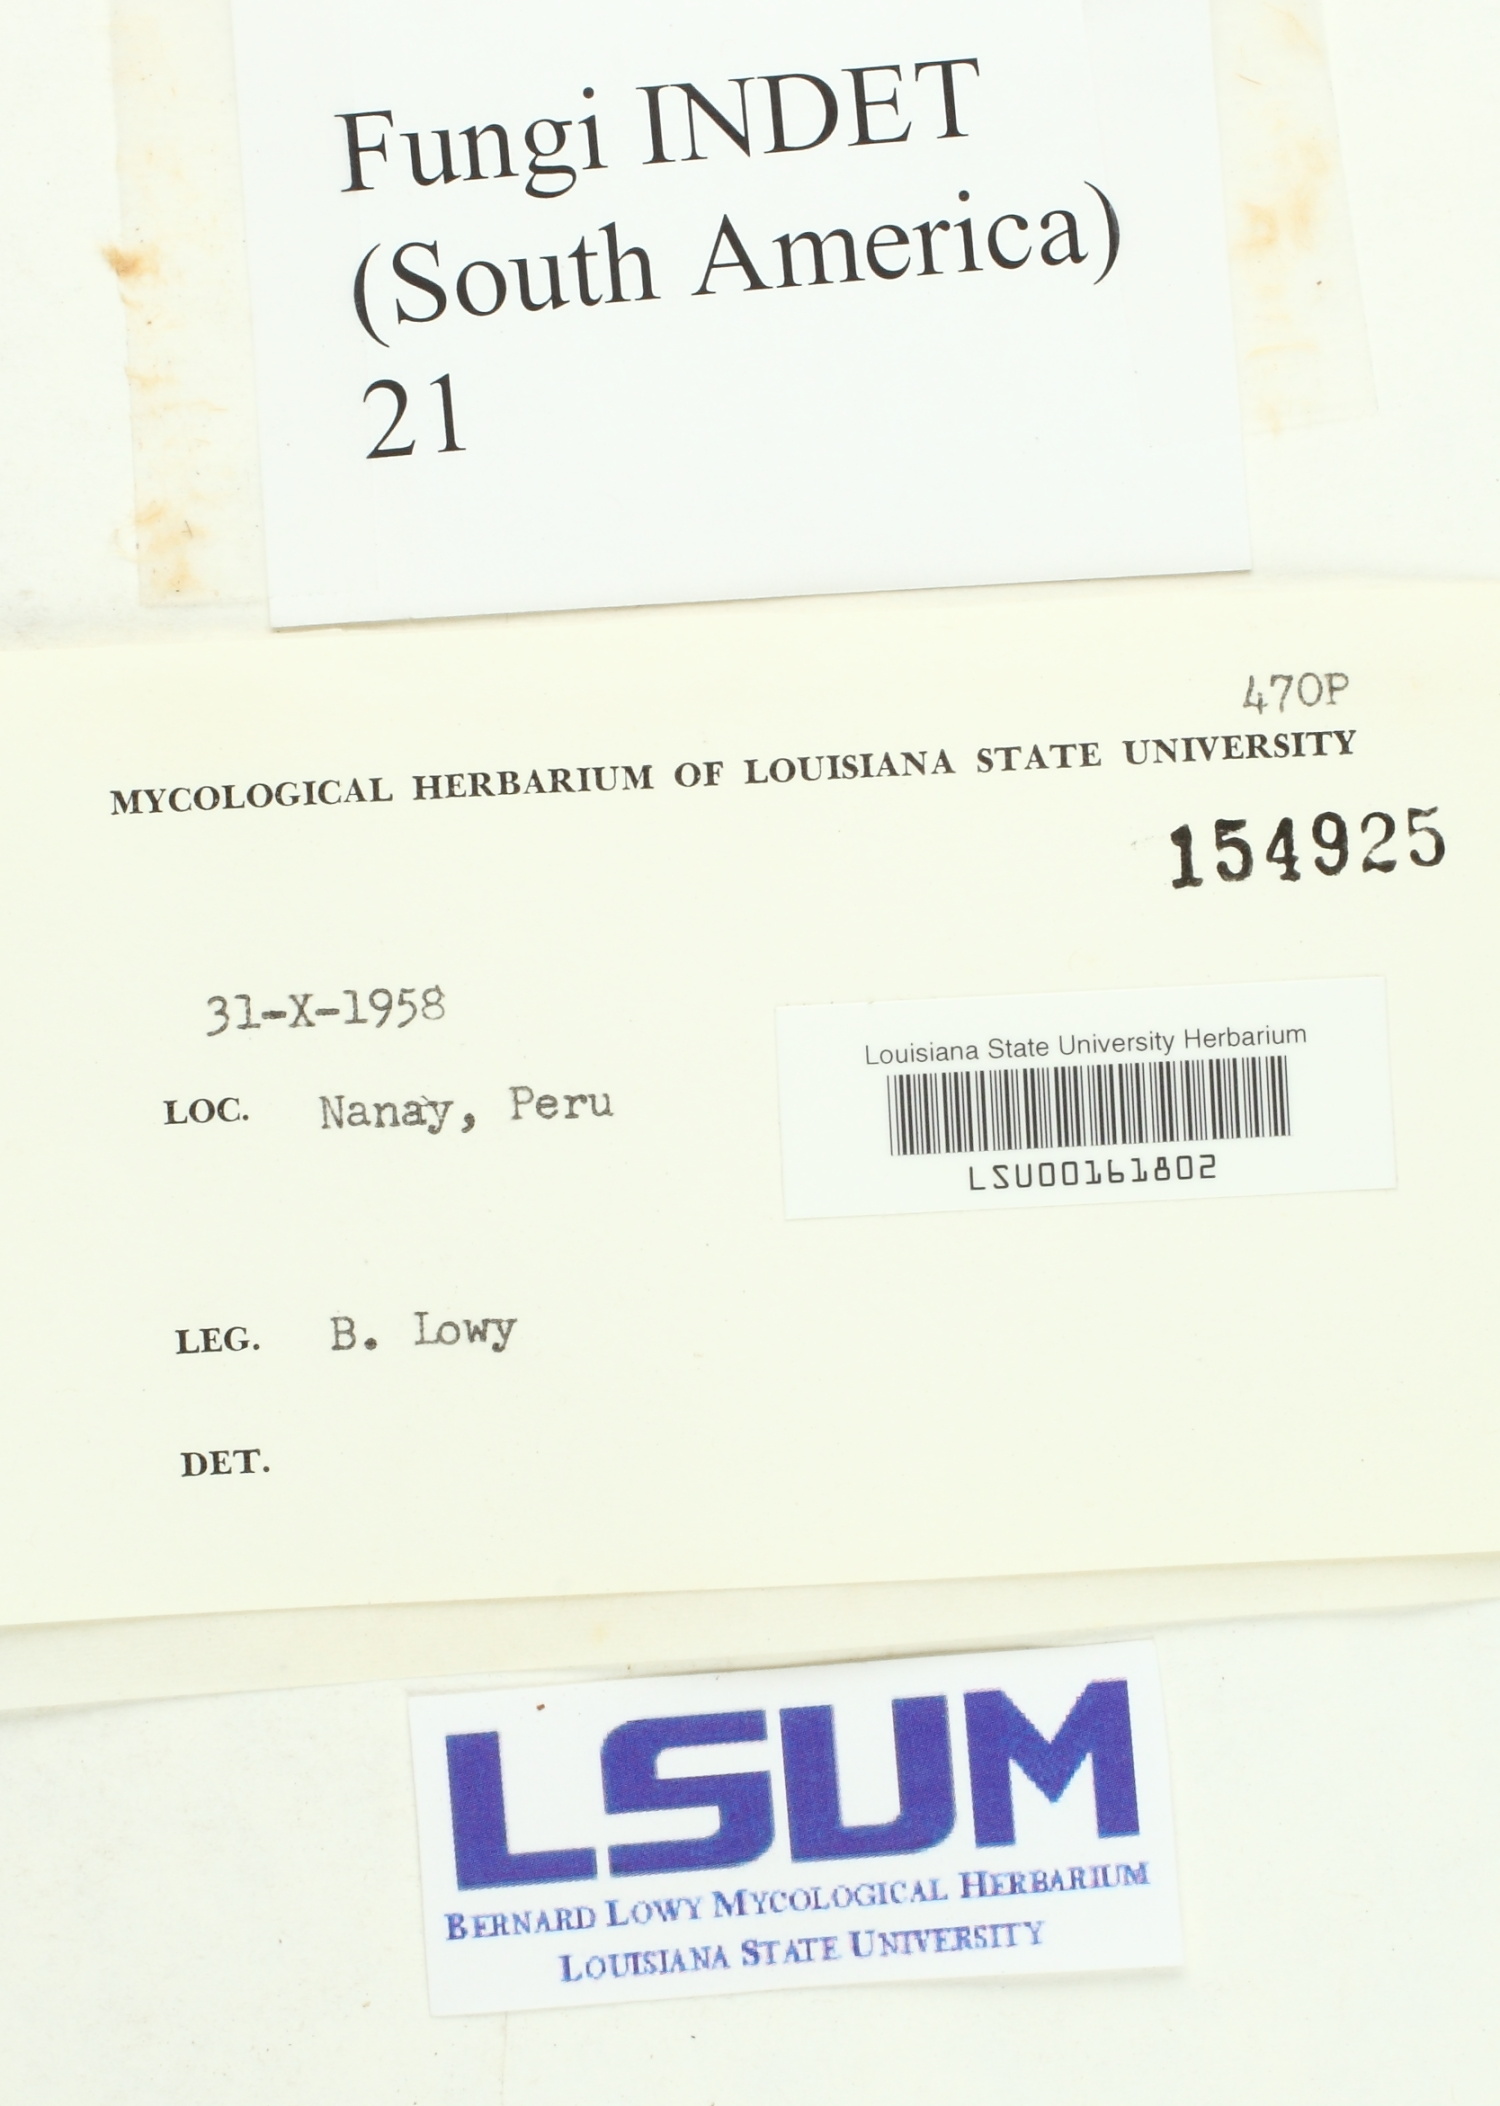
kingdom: Fungi
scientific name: Fungi
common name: Fungi
